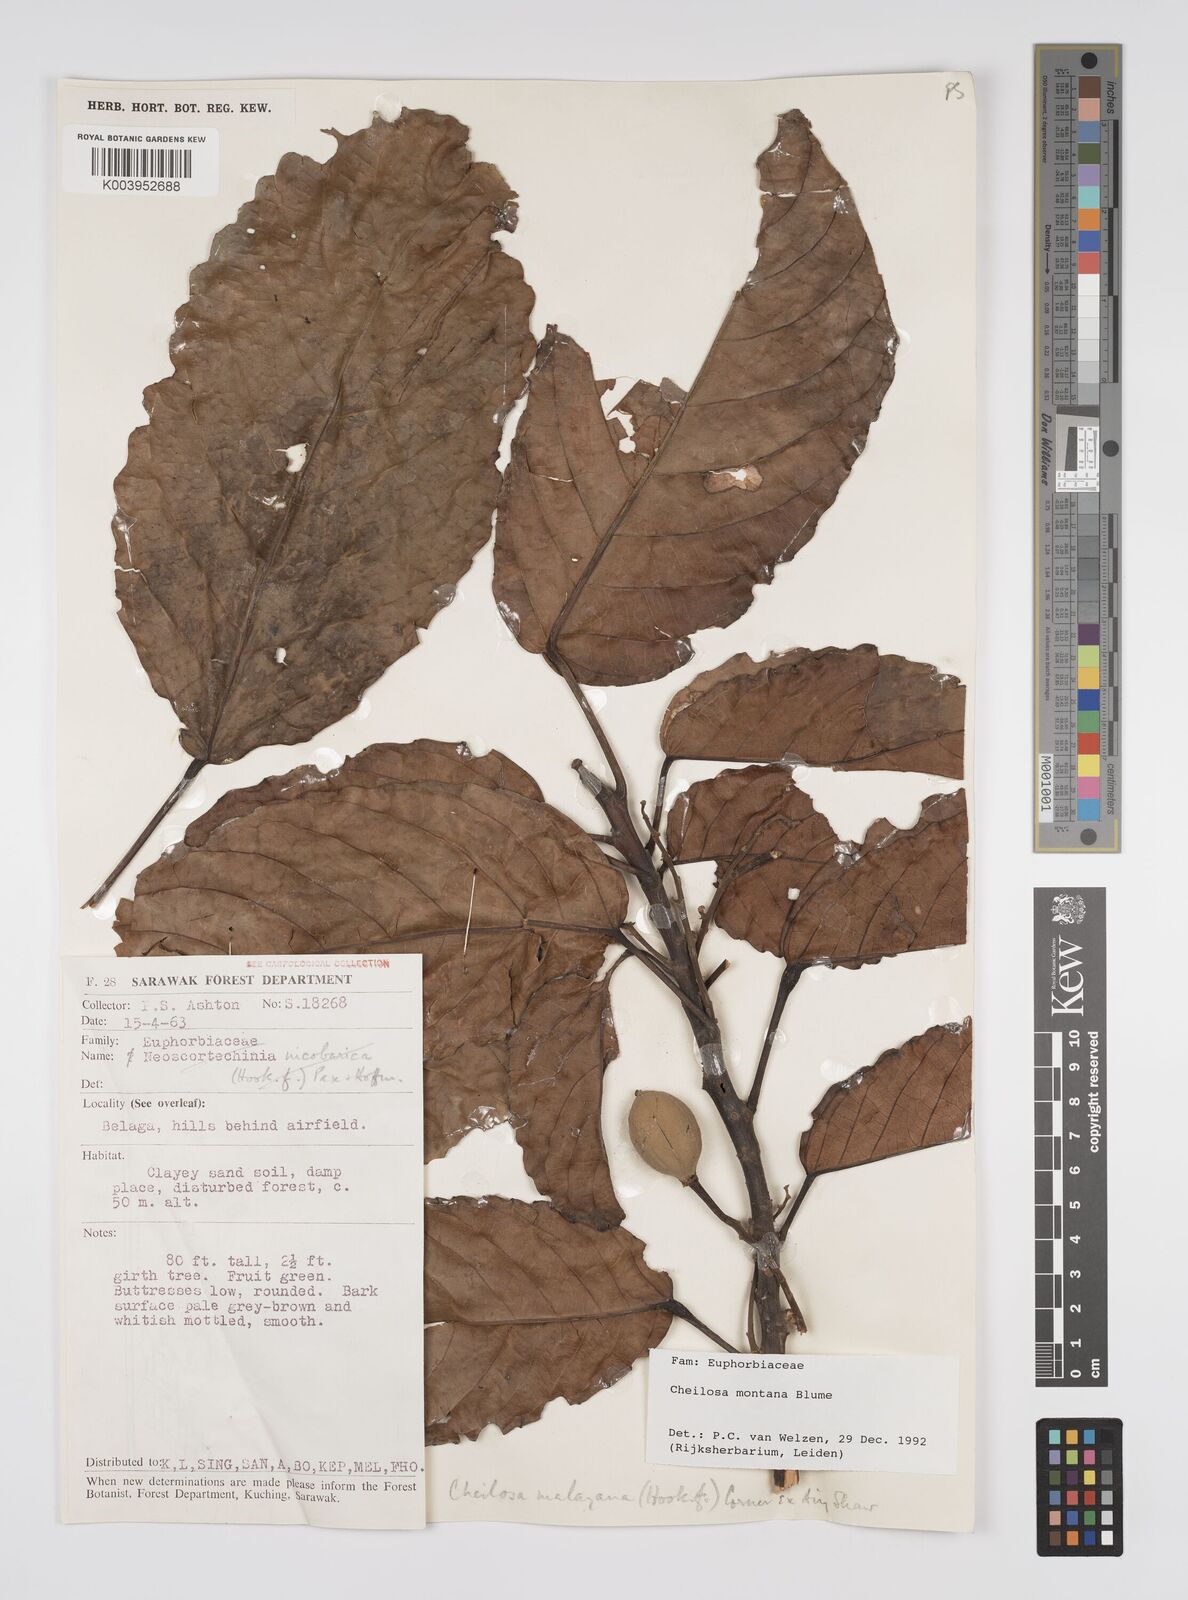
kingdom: Plantae
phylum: Tracheophyta
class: Magnoliopsida
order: Malpighiales
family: Euphorbiaceae
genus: Cheilosa
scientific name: Cheilosa montana
